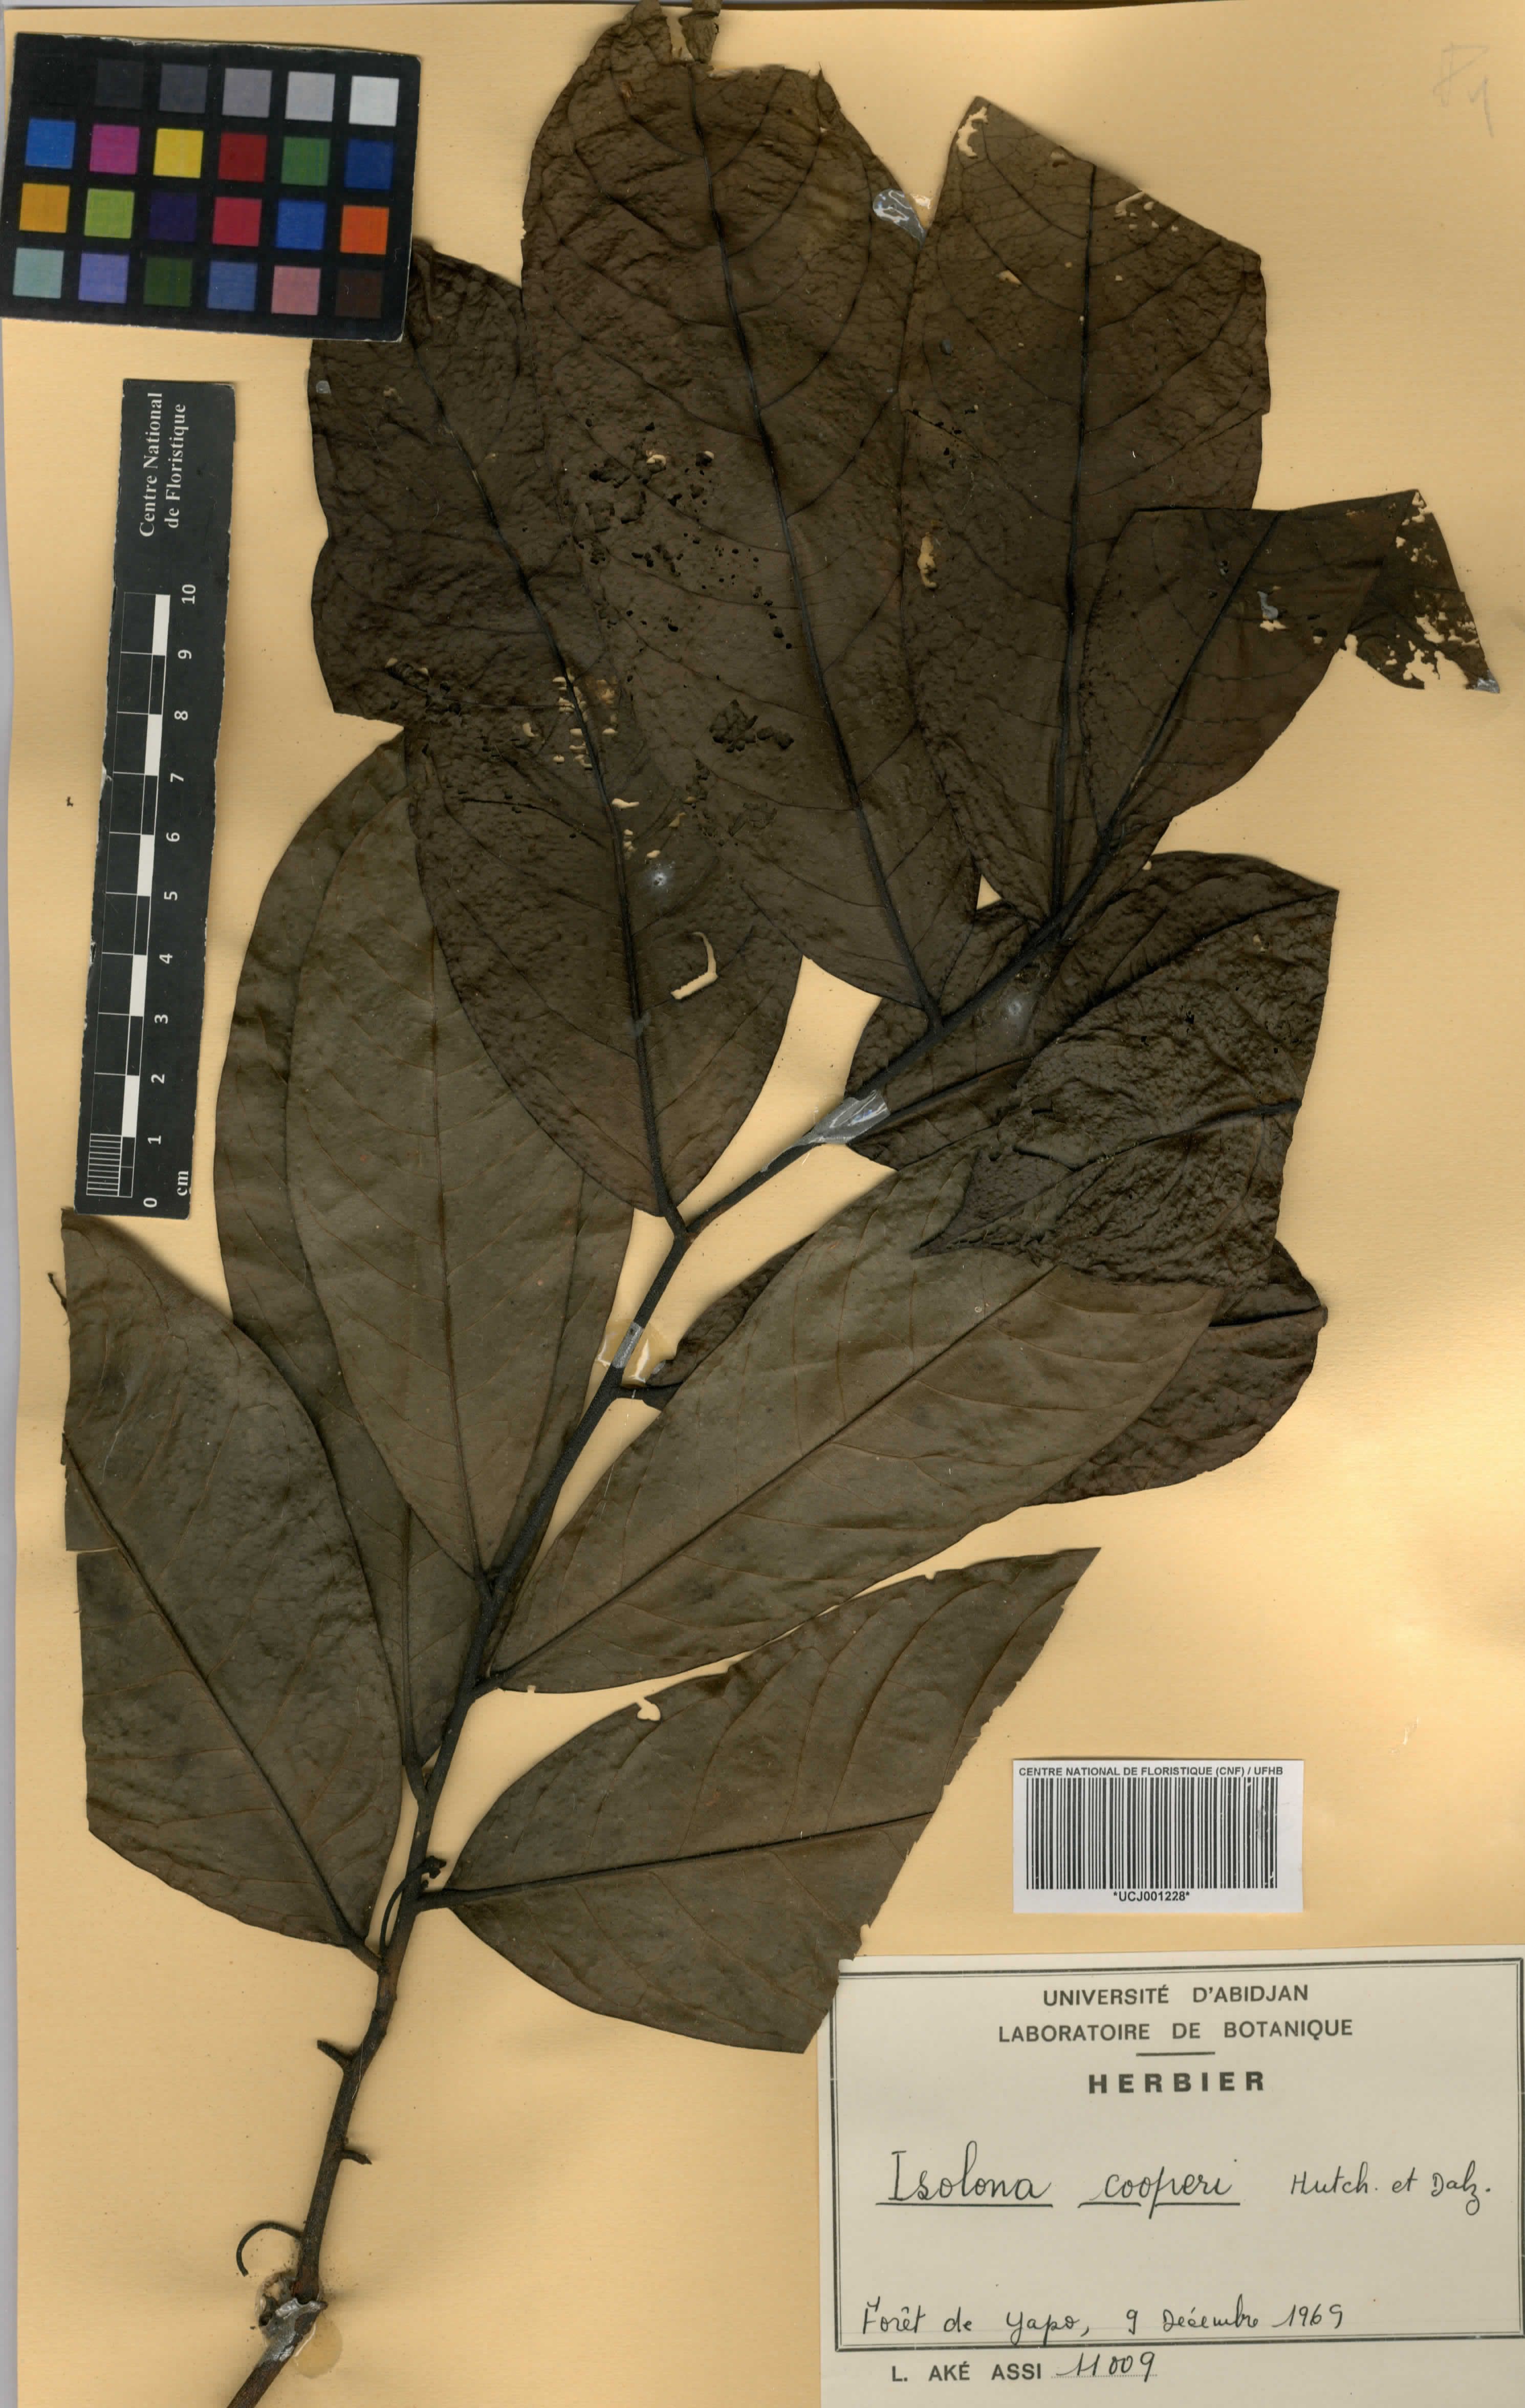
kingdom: Plantae
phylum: Tracheophyta
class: Magnoliopsida
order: Magnoliales
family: Annonaceae
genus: Isolona
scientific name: Isolona cooperi
